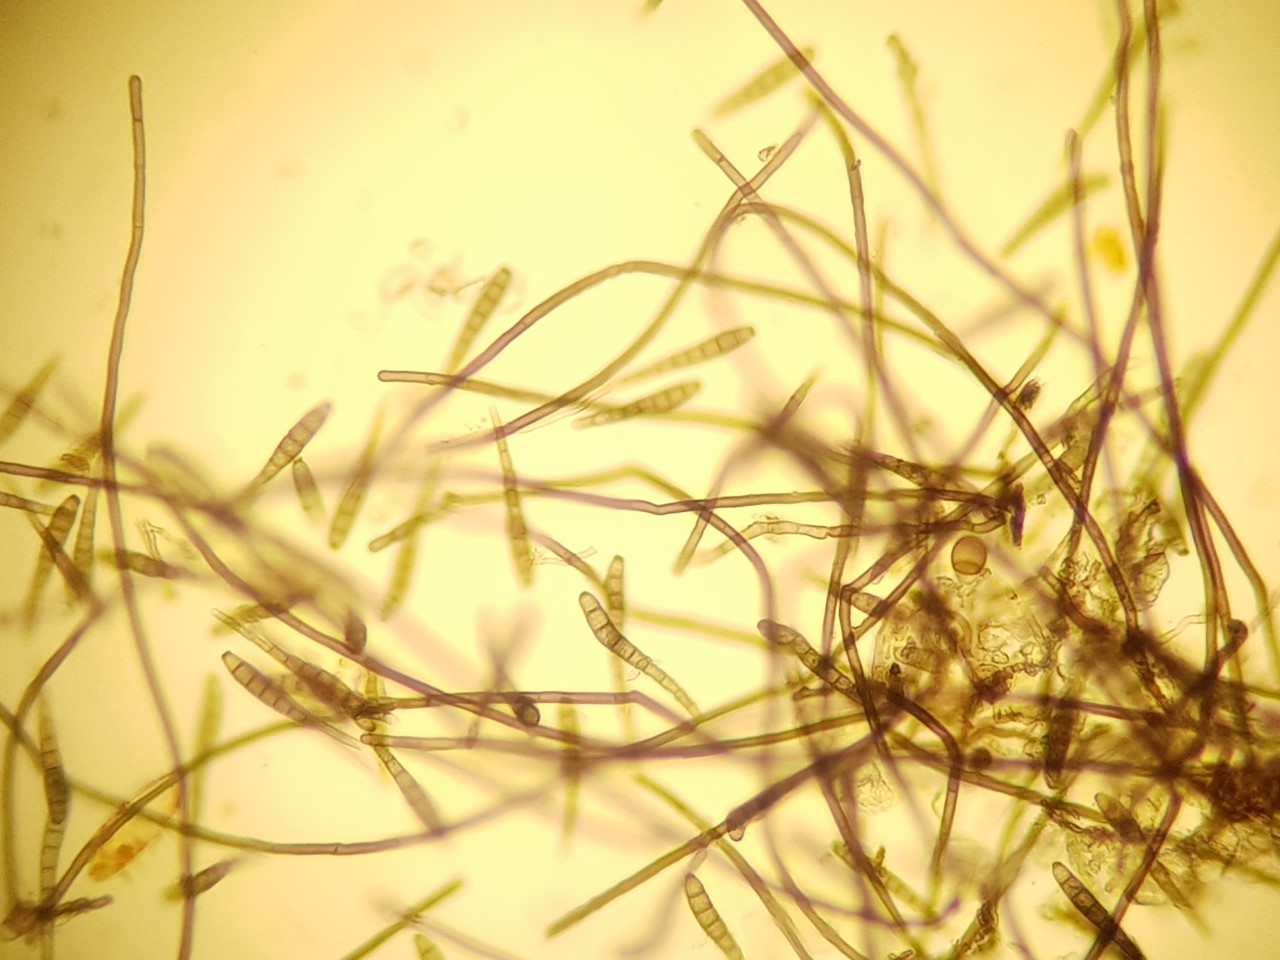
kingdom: Fungi
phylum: Ascomycota
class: Dothideomycetes
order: Pleosporales
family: Kirschsteiniotheliaceae
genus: Solicorynespora
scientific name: Solicorynespora foveolata
